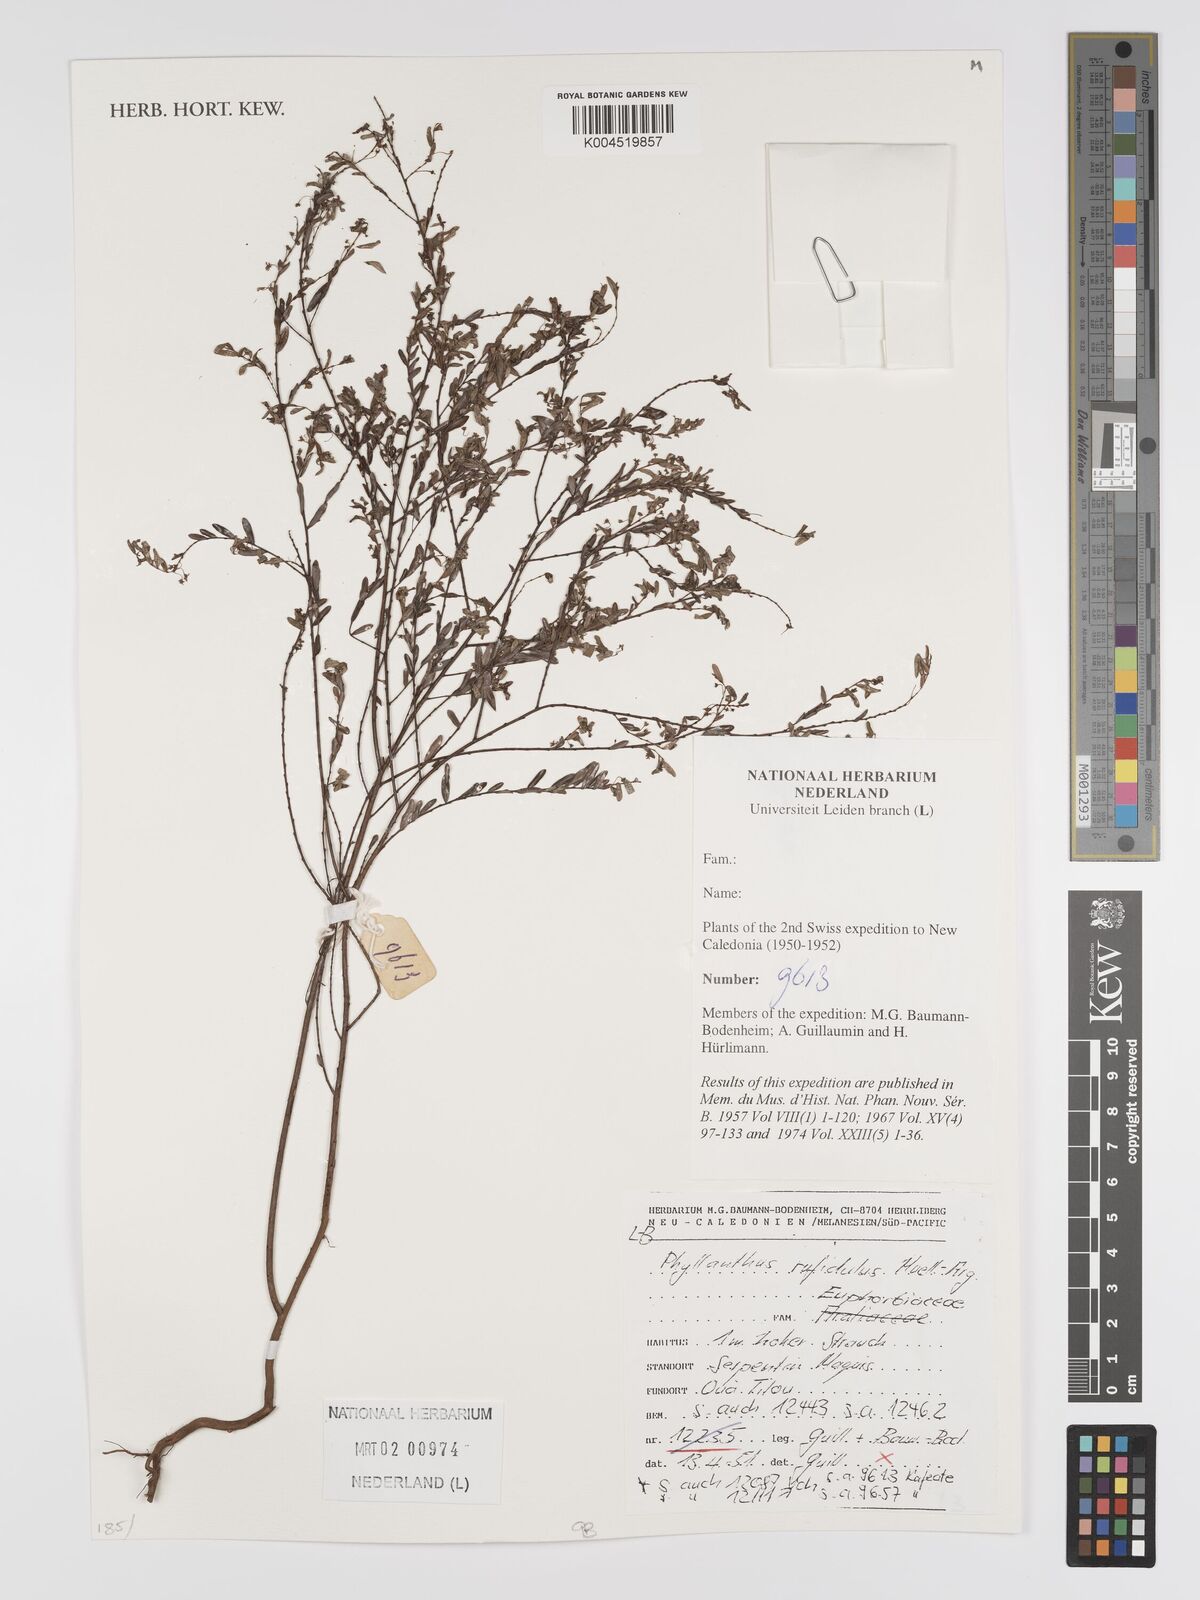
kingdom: Plantae
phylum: Tracheophyta
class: Magnoliopsida
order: Malpighiales
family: Phyllanthaceae
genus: Phyllanthus
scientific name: Phyllanthus chrysanthus
